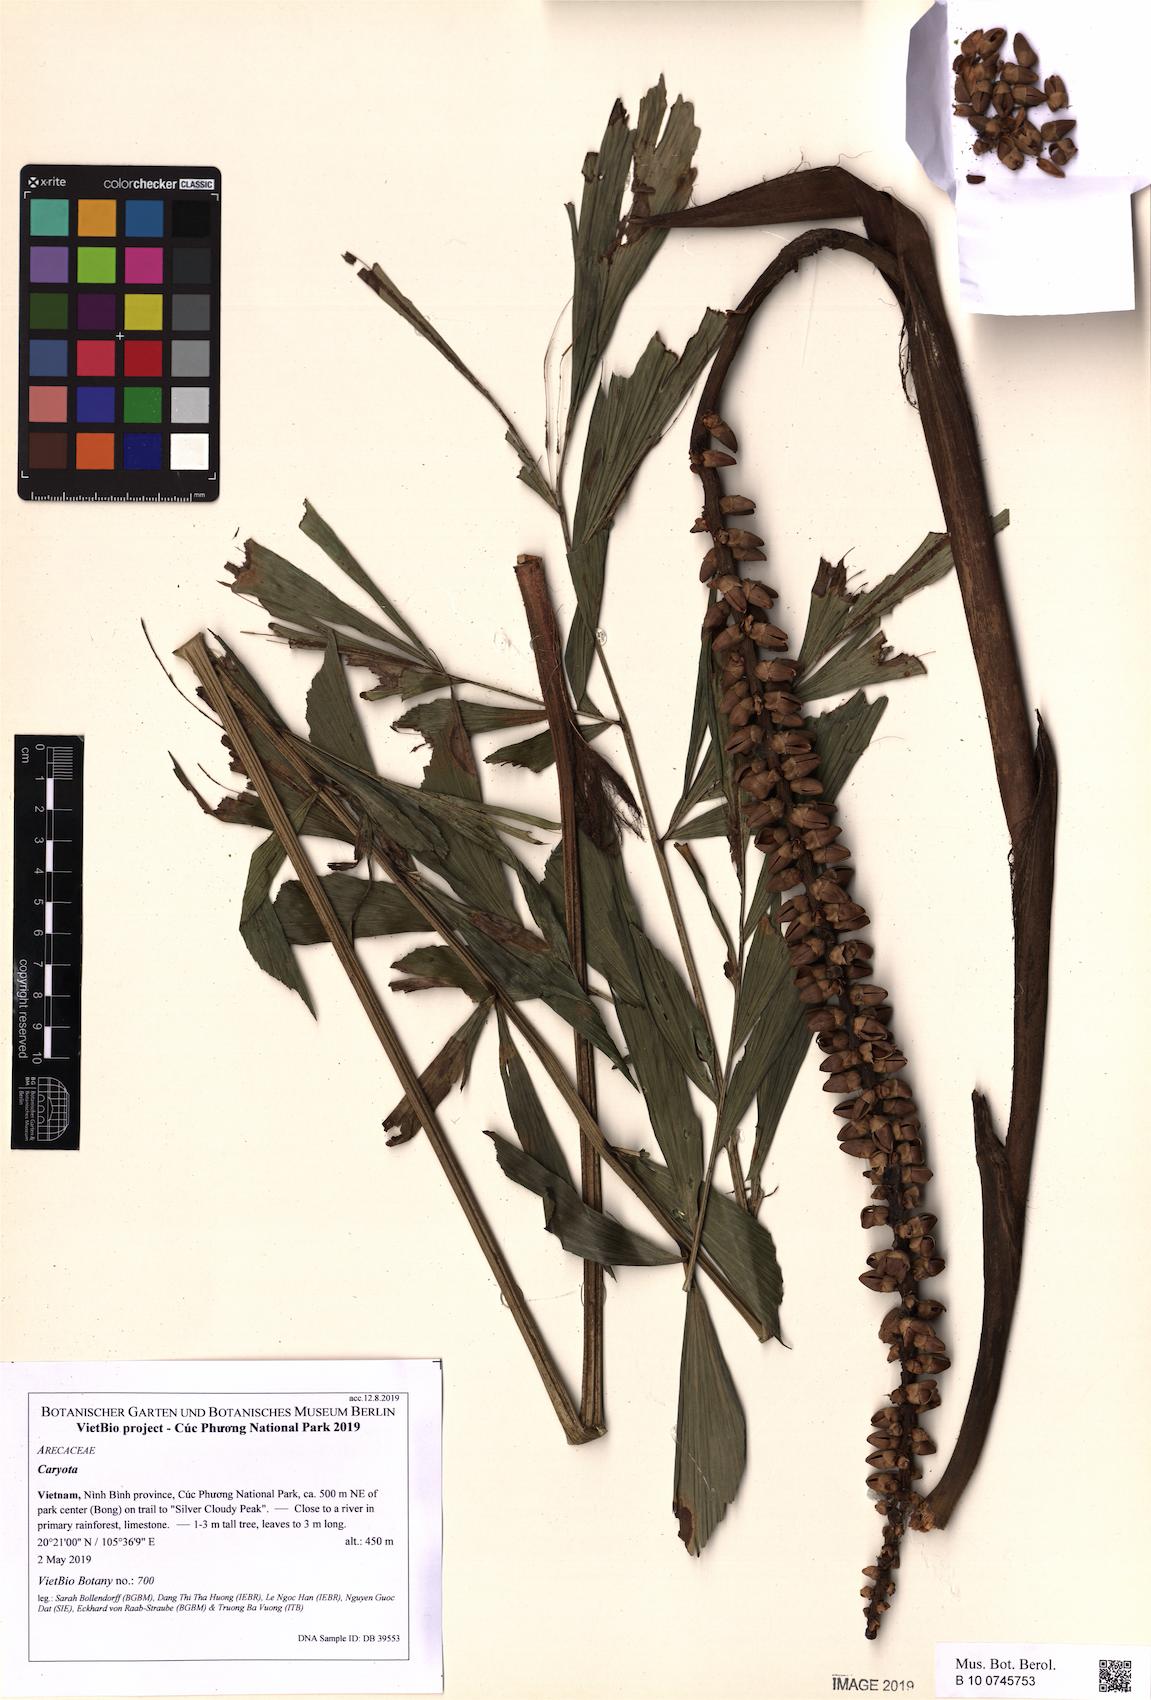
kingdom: Plantae
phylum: Tracheophyta
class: Liliopsida
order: Arecales
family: Arecaceae
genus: Caryota
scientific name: Caryota
